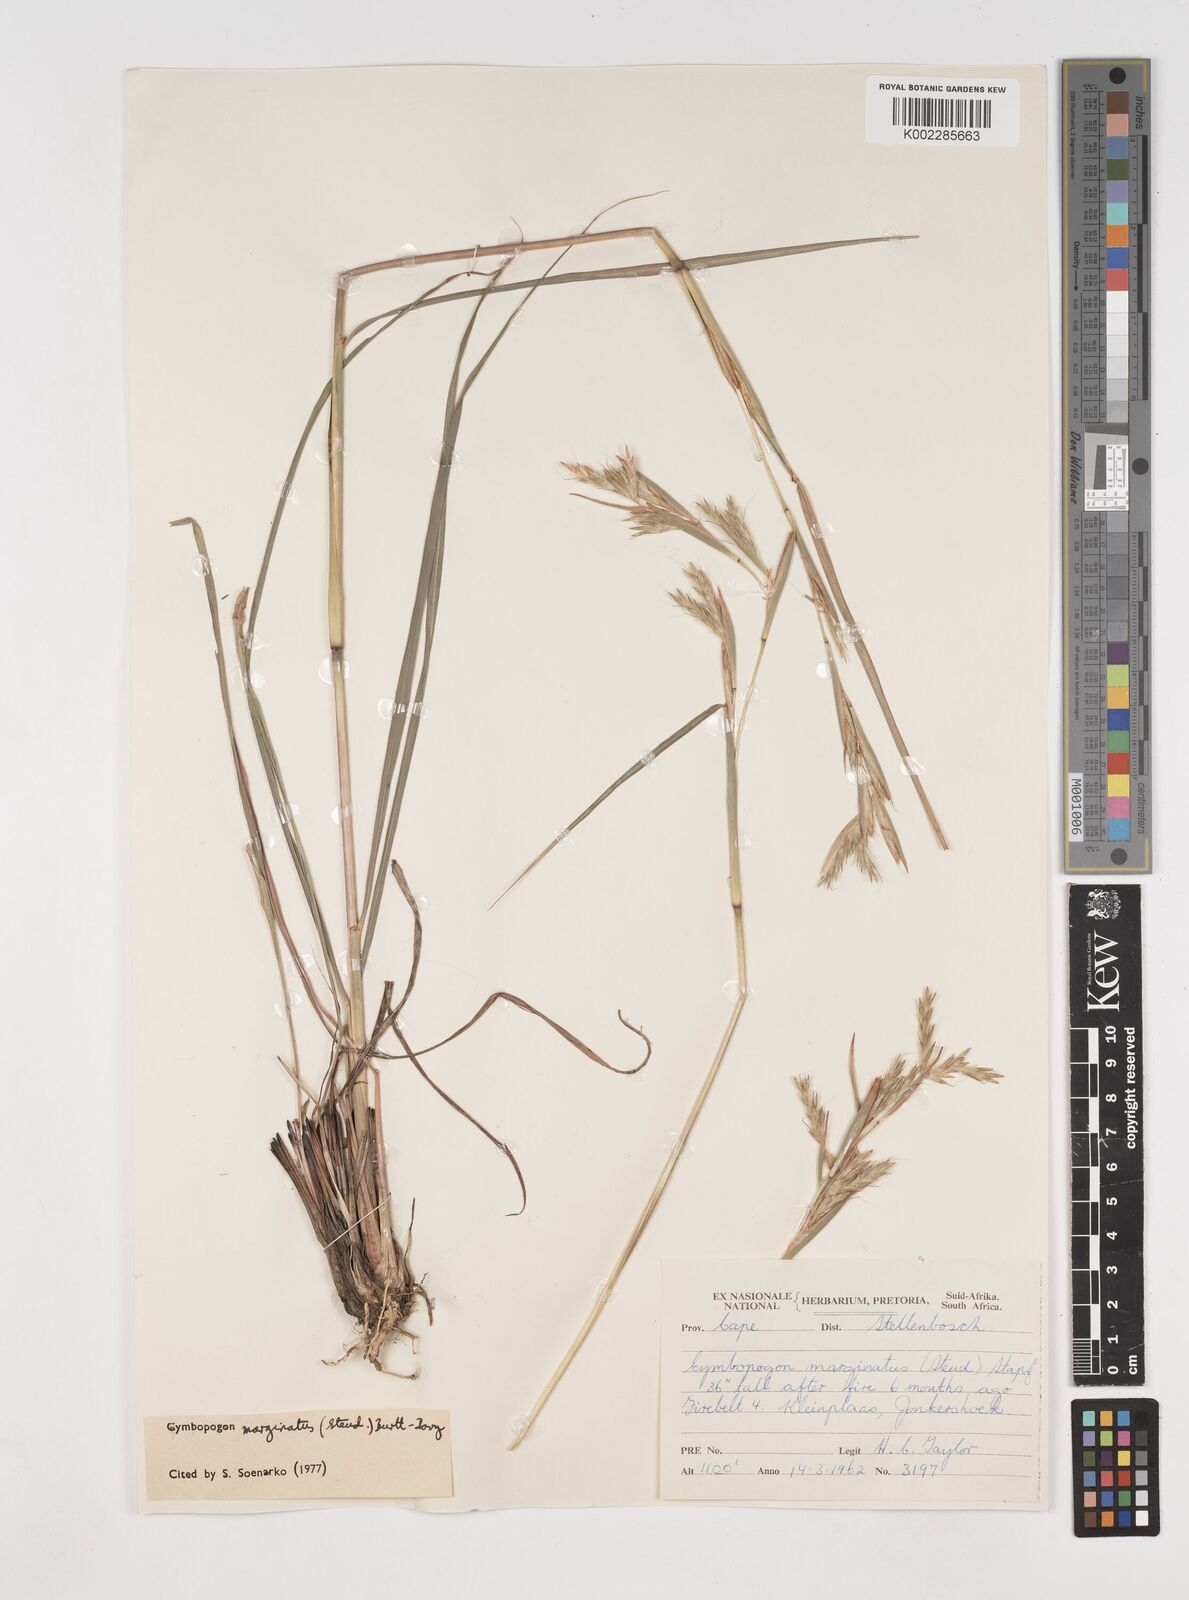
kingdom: Plantae
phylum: Tracheophyta
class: Liliopsida
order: Poales
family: Poaceae
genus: Cymbopogon
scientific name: Cymbopogon marginatus
